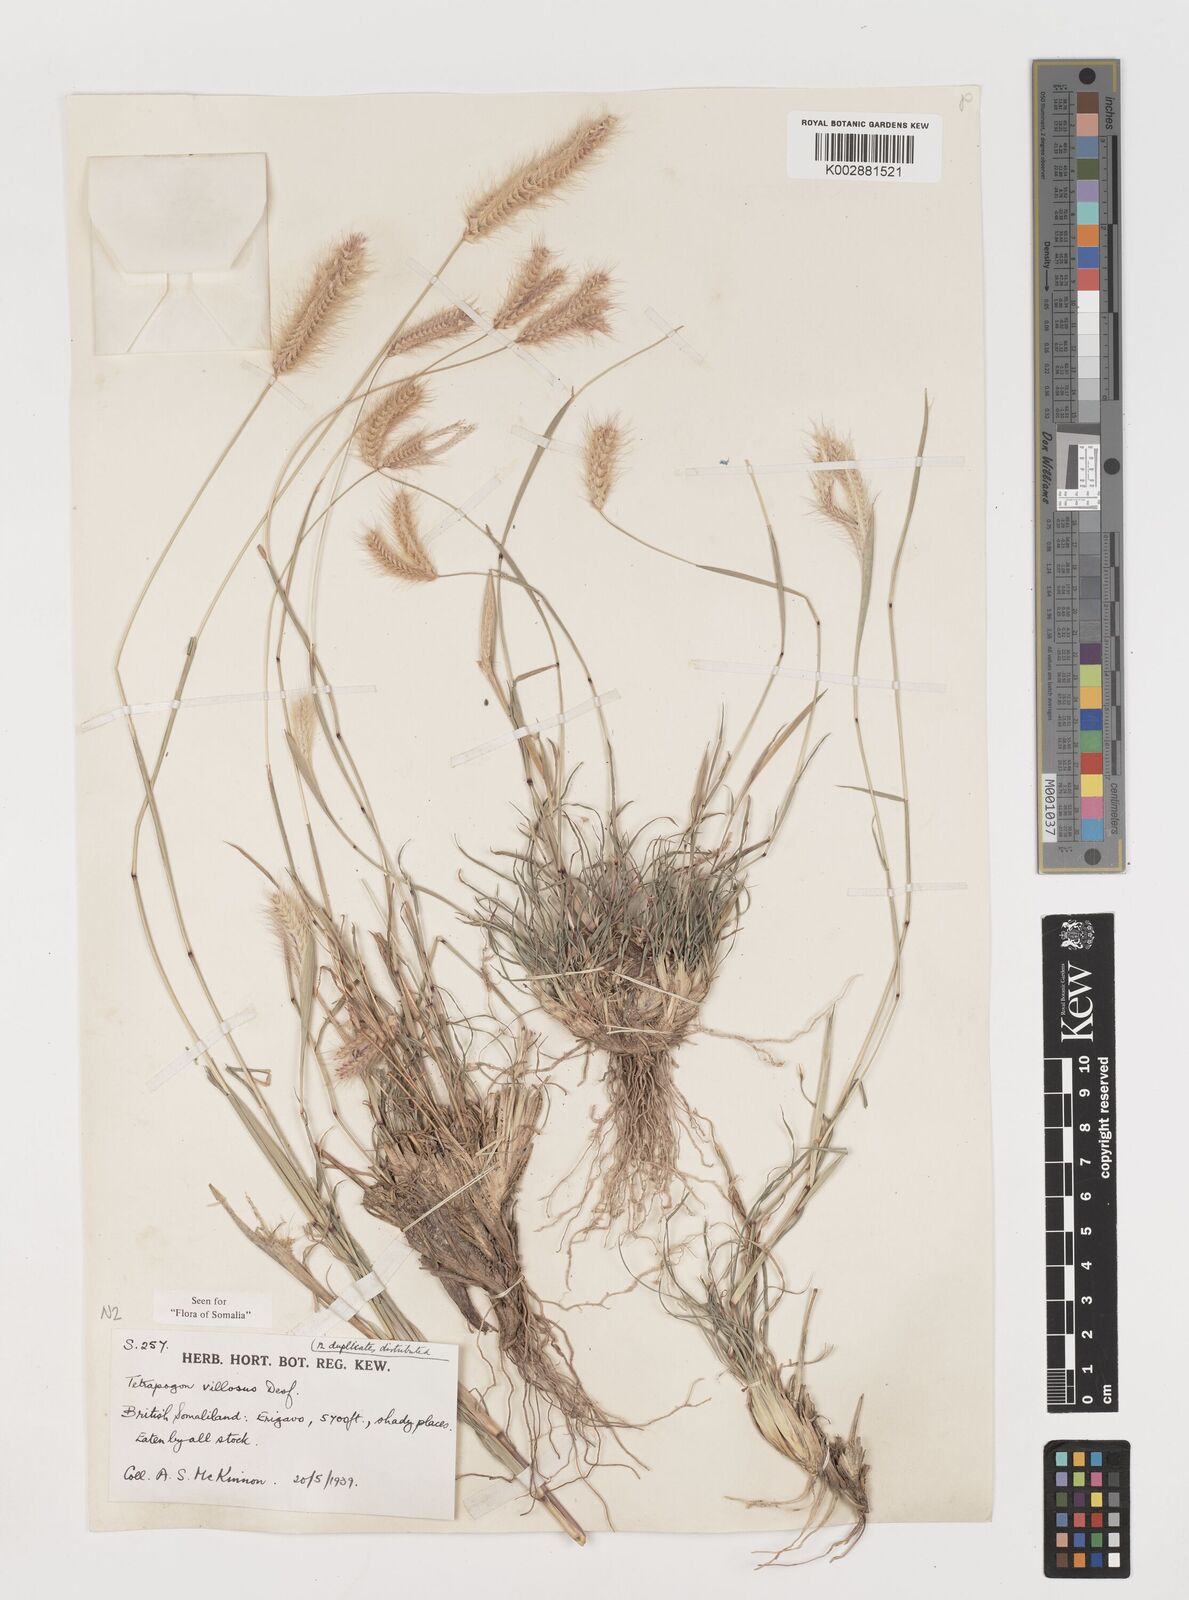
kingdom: Plantae
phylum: Tracheophyta
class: Liliopsida
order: Poales
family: Poaceae
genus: Tetrapogon
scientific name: Tetrapogon villosus
